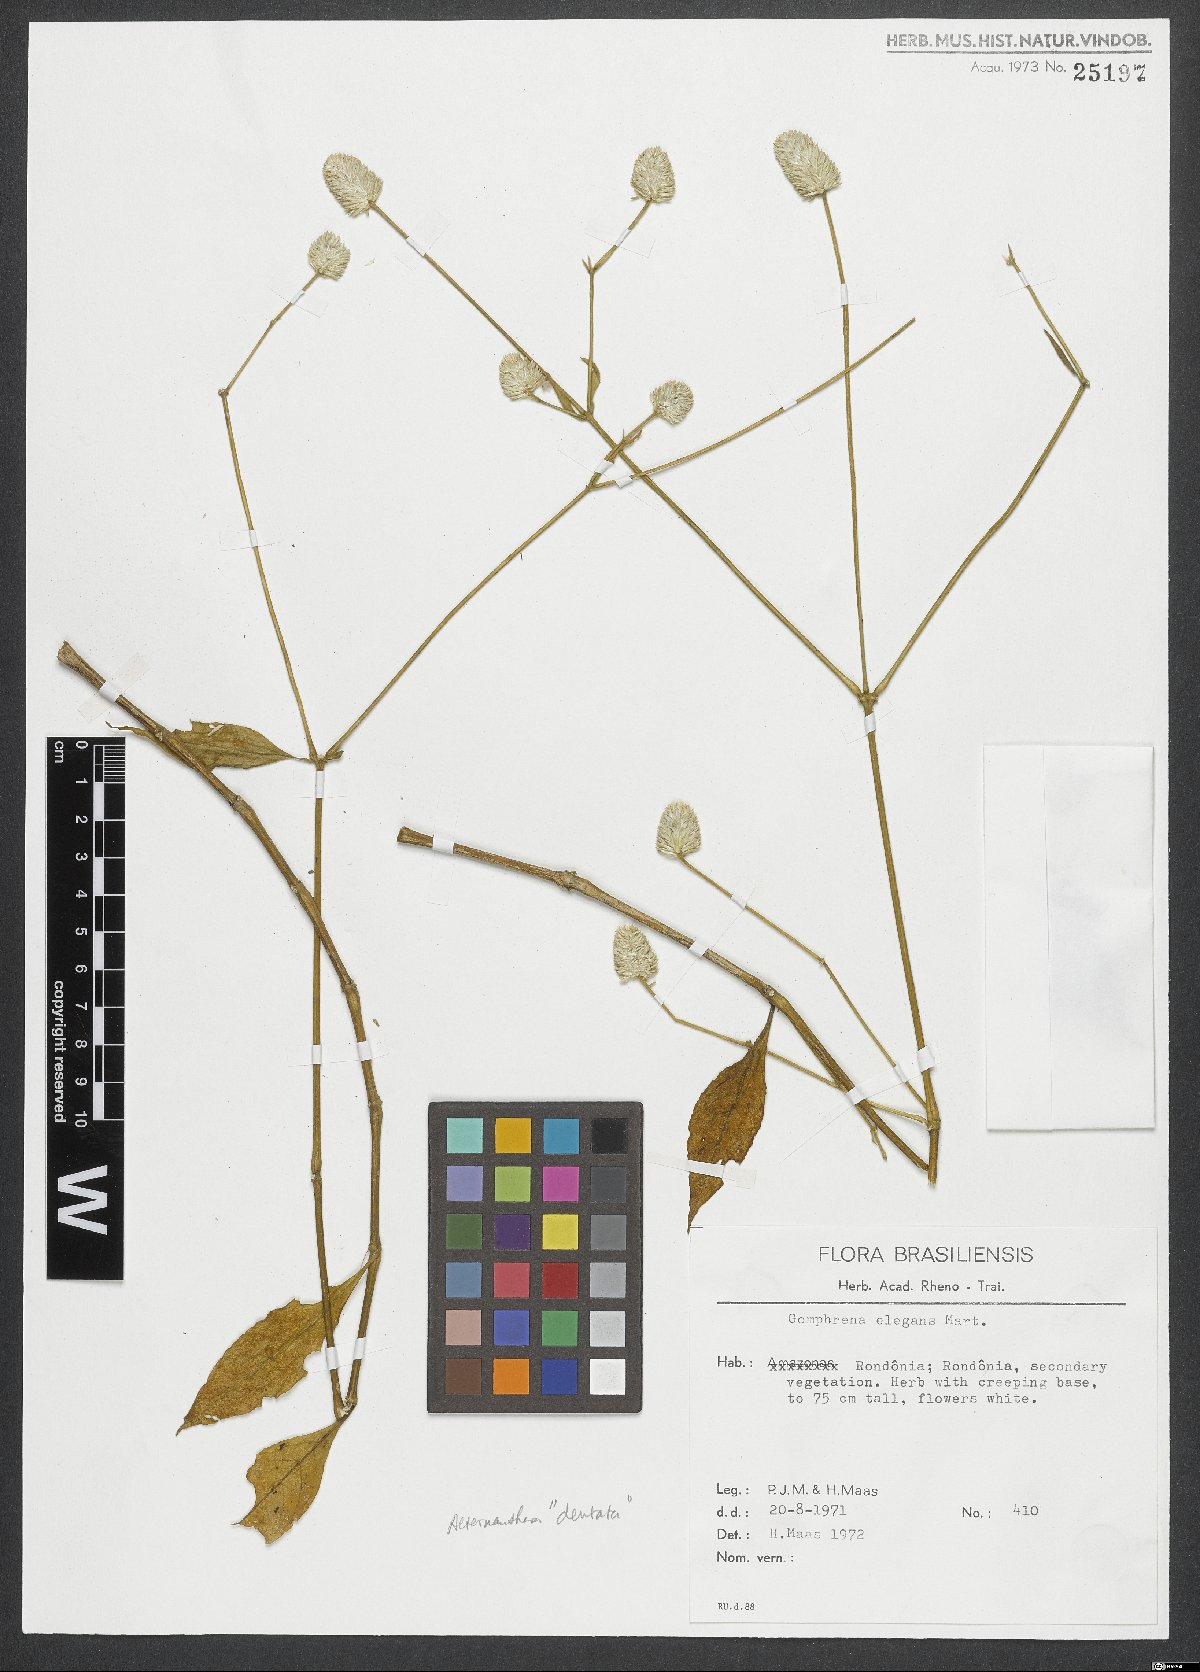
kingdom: Plantae
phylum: Tracheophyta
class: Magnoliopsida
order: Caryophyllales
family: Amaranthaceae
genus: Gomphrena
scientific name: Gomphrena elegans
